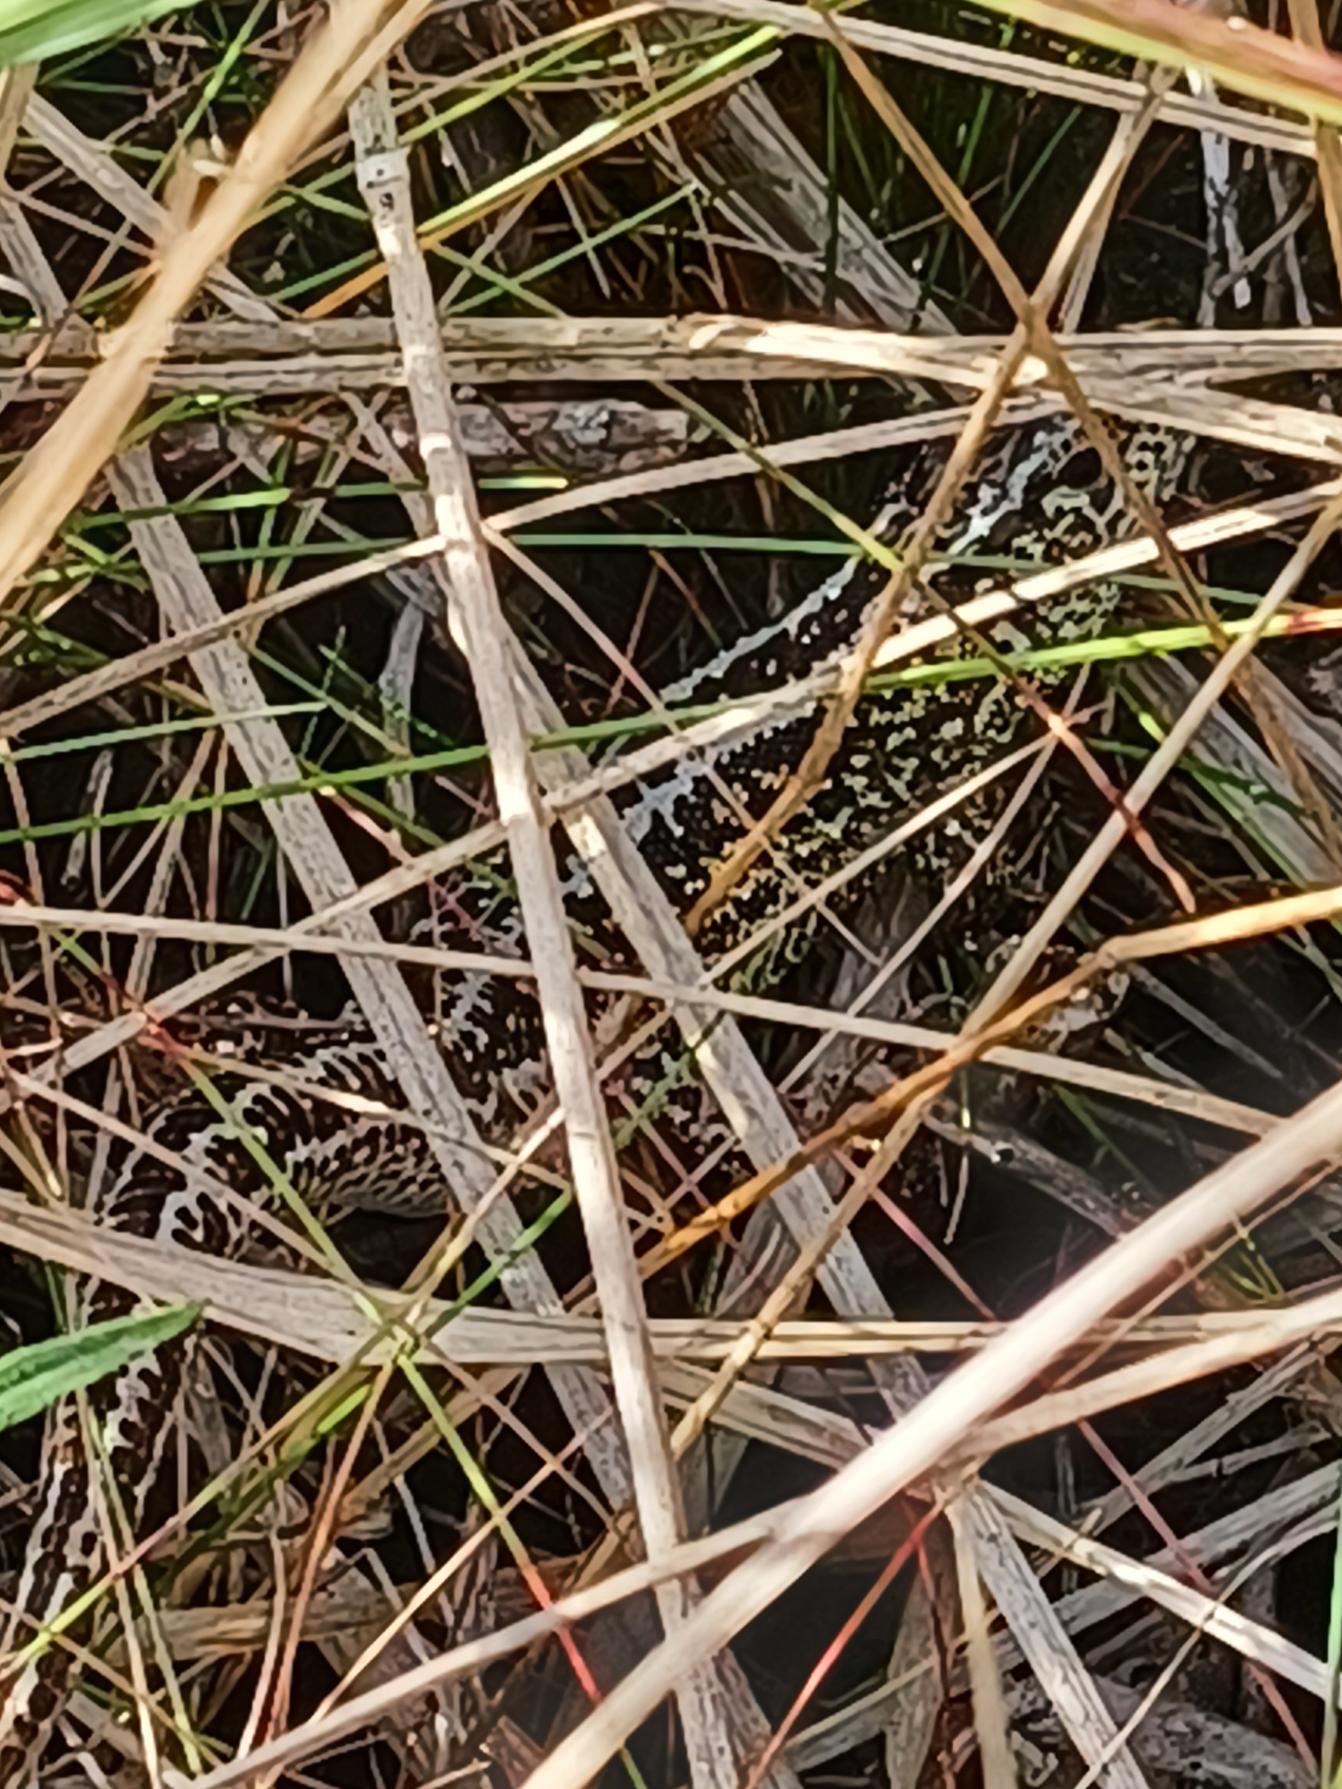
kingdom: Animalia
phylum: Chordata
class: Squamata
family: Lacertidae
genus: Lacerta
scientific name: Lacerta agilis
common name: Markfirben
